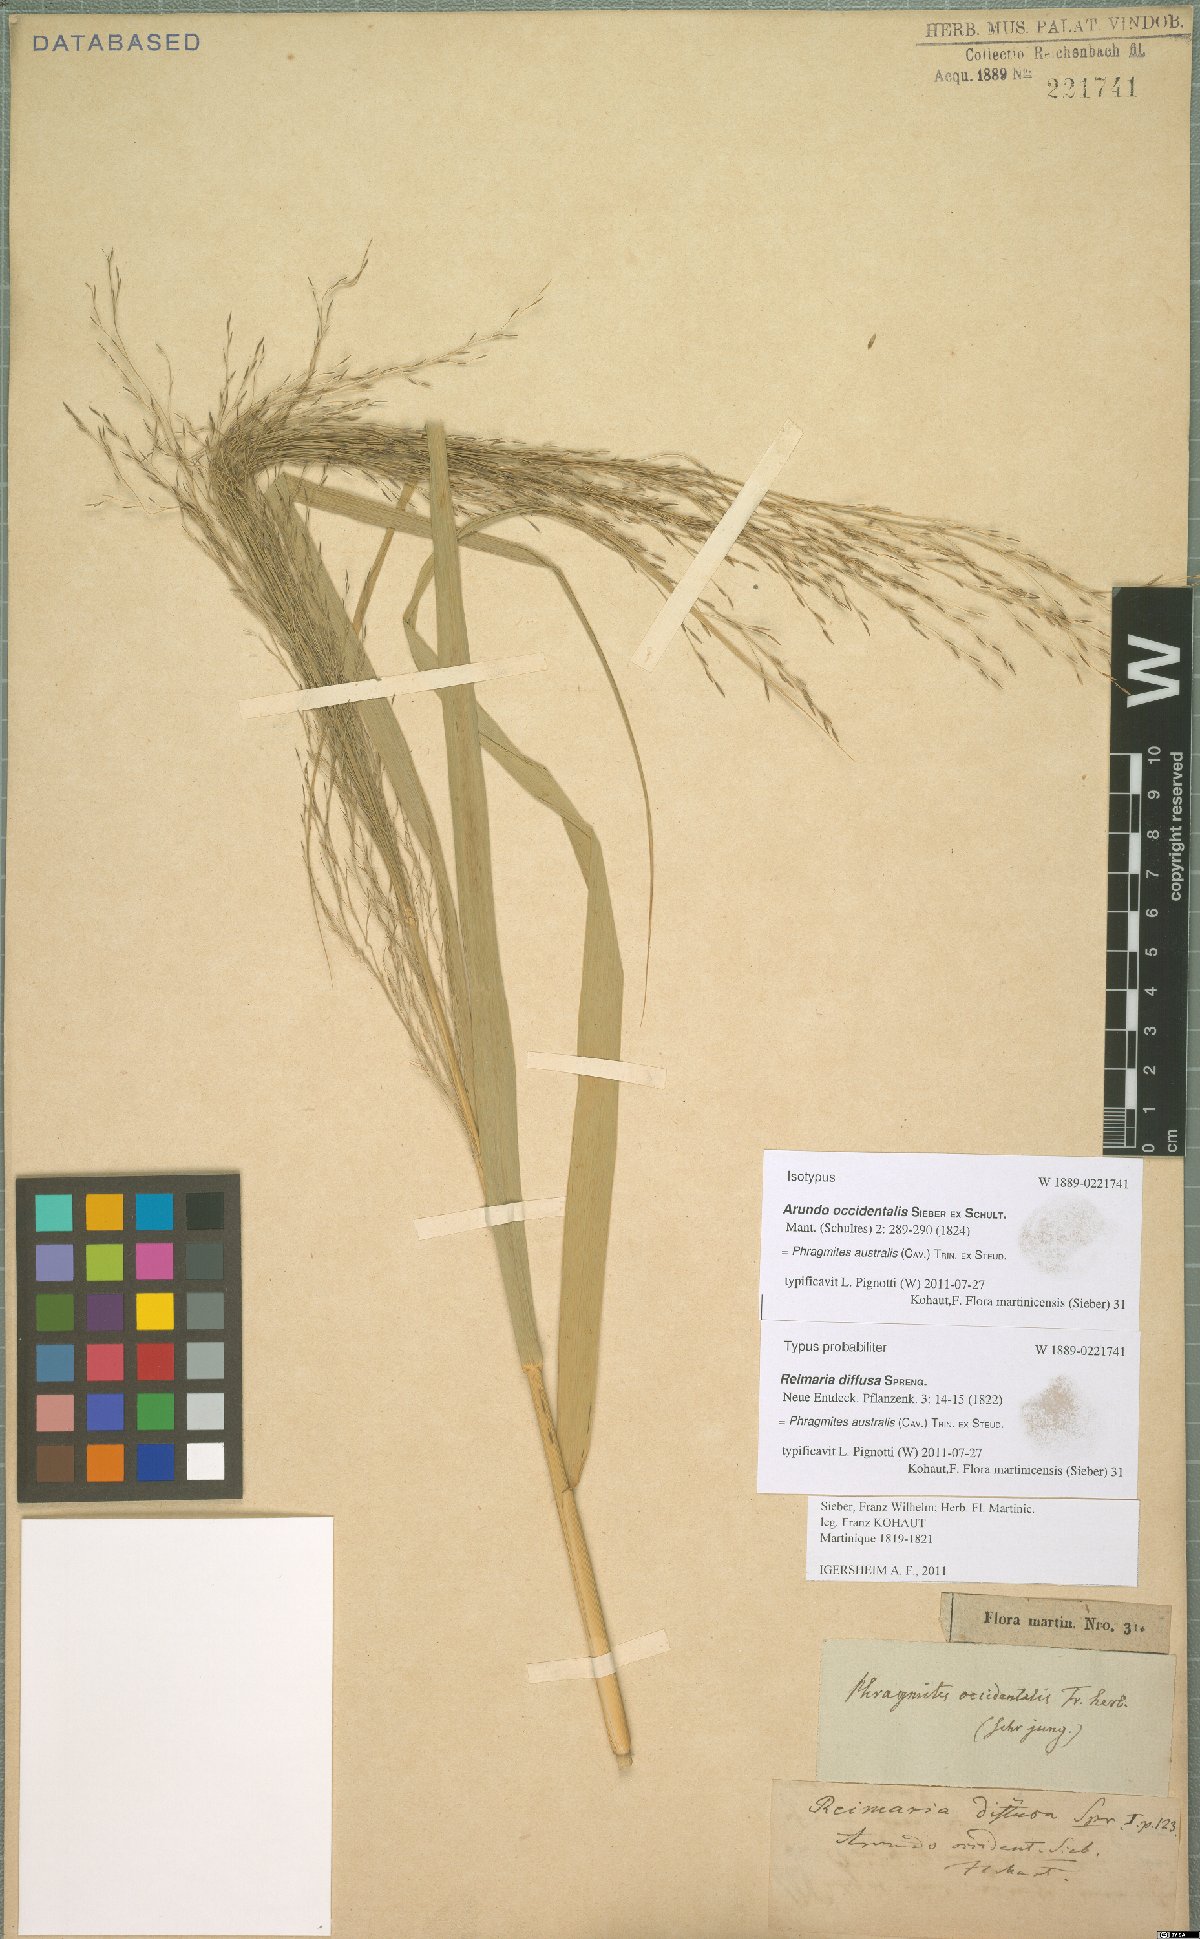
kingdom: Plantae
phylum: Tracheophyta
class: Liliopsida
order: Poales
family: Poaceae
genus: Phragmites
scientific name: Phragmites australis
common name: Common reed
